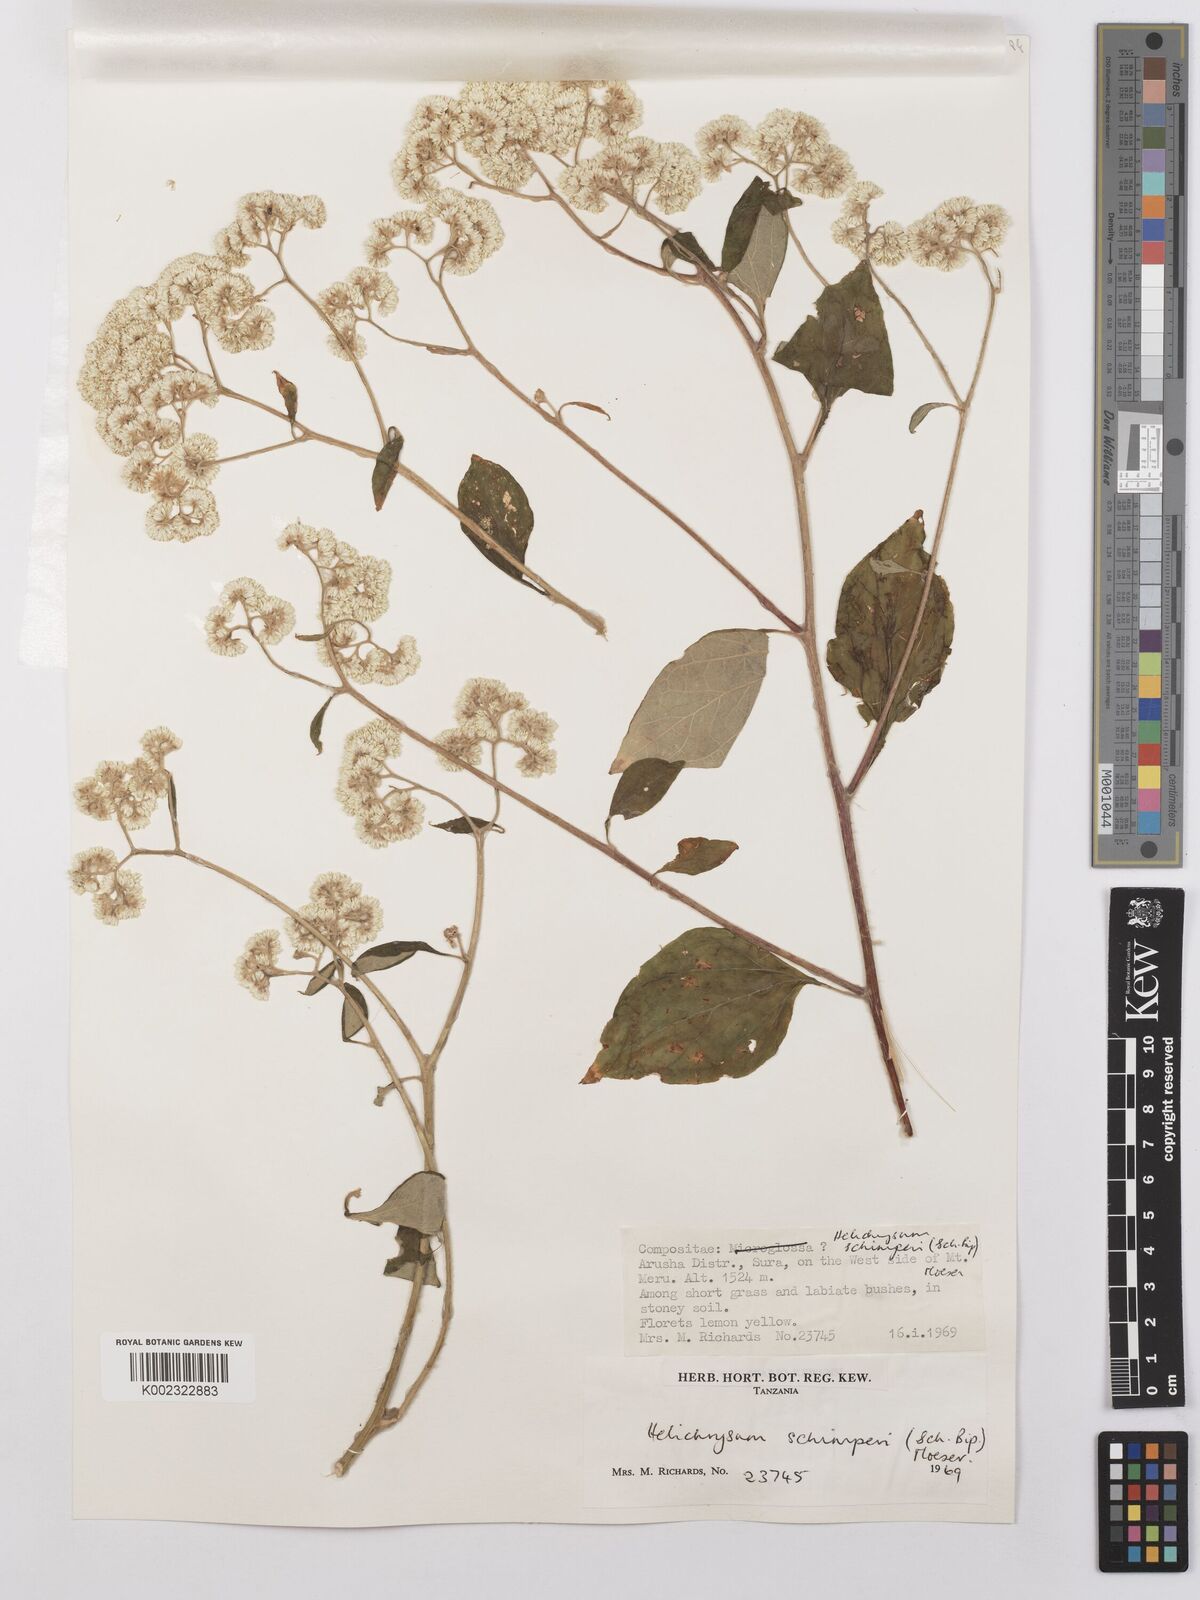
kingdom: Plantae
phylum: Tracheophyta
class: Magnoliopsida
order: Asterales
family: Asteraceae
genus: Helichrysum
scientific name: Helichrysum schimperi
